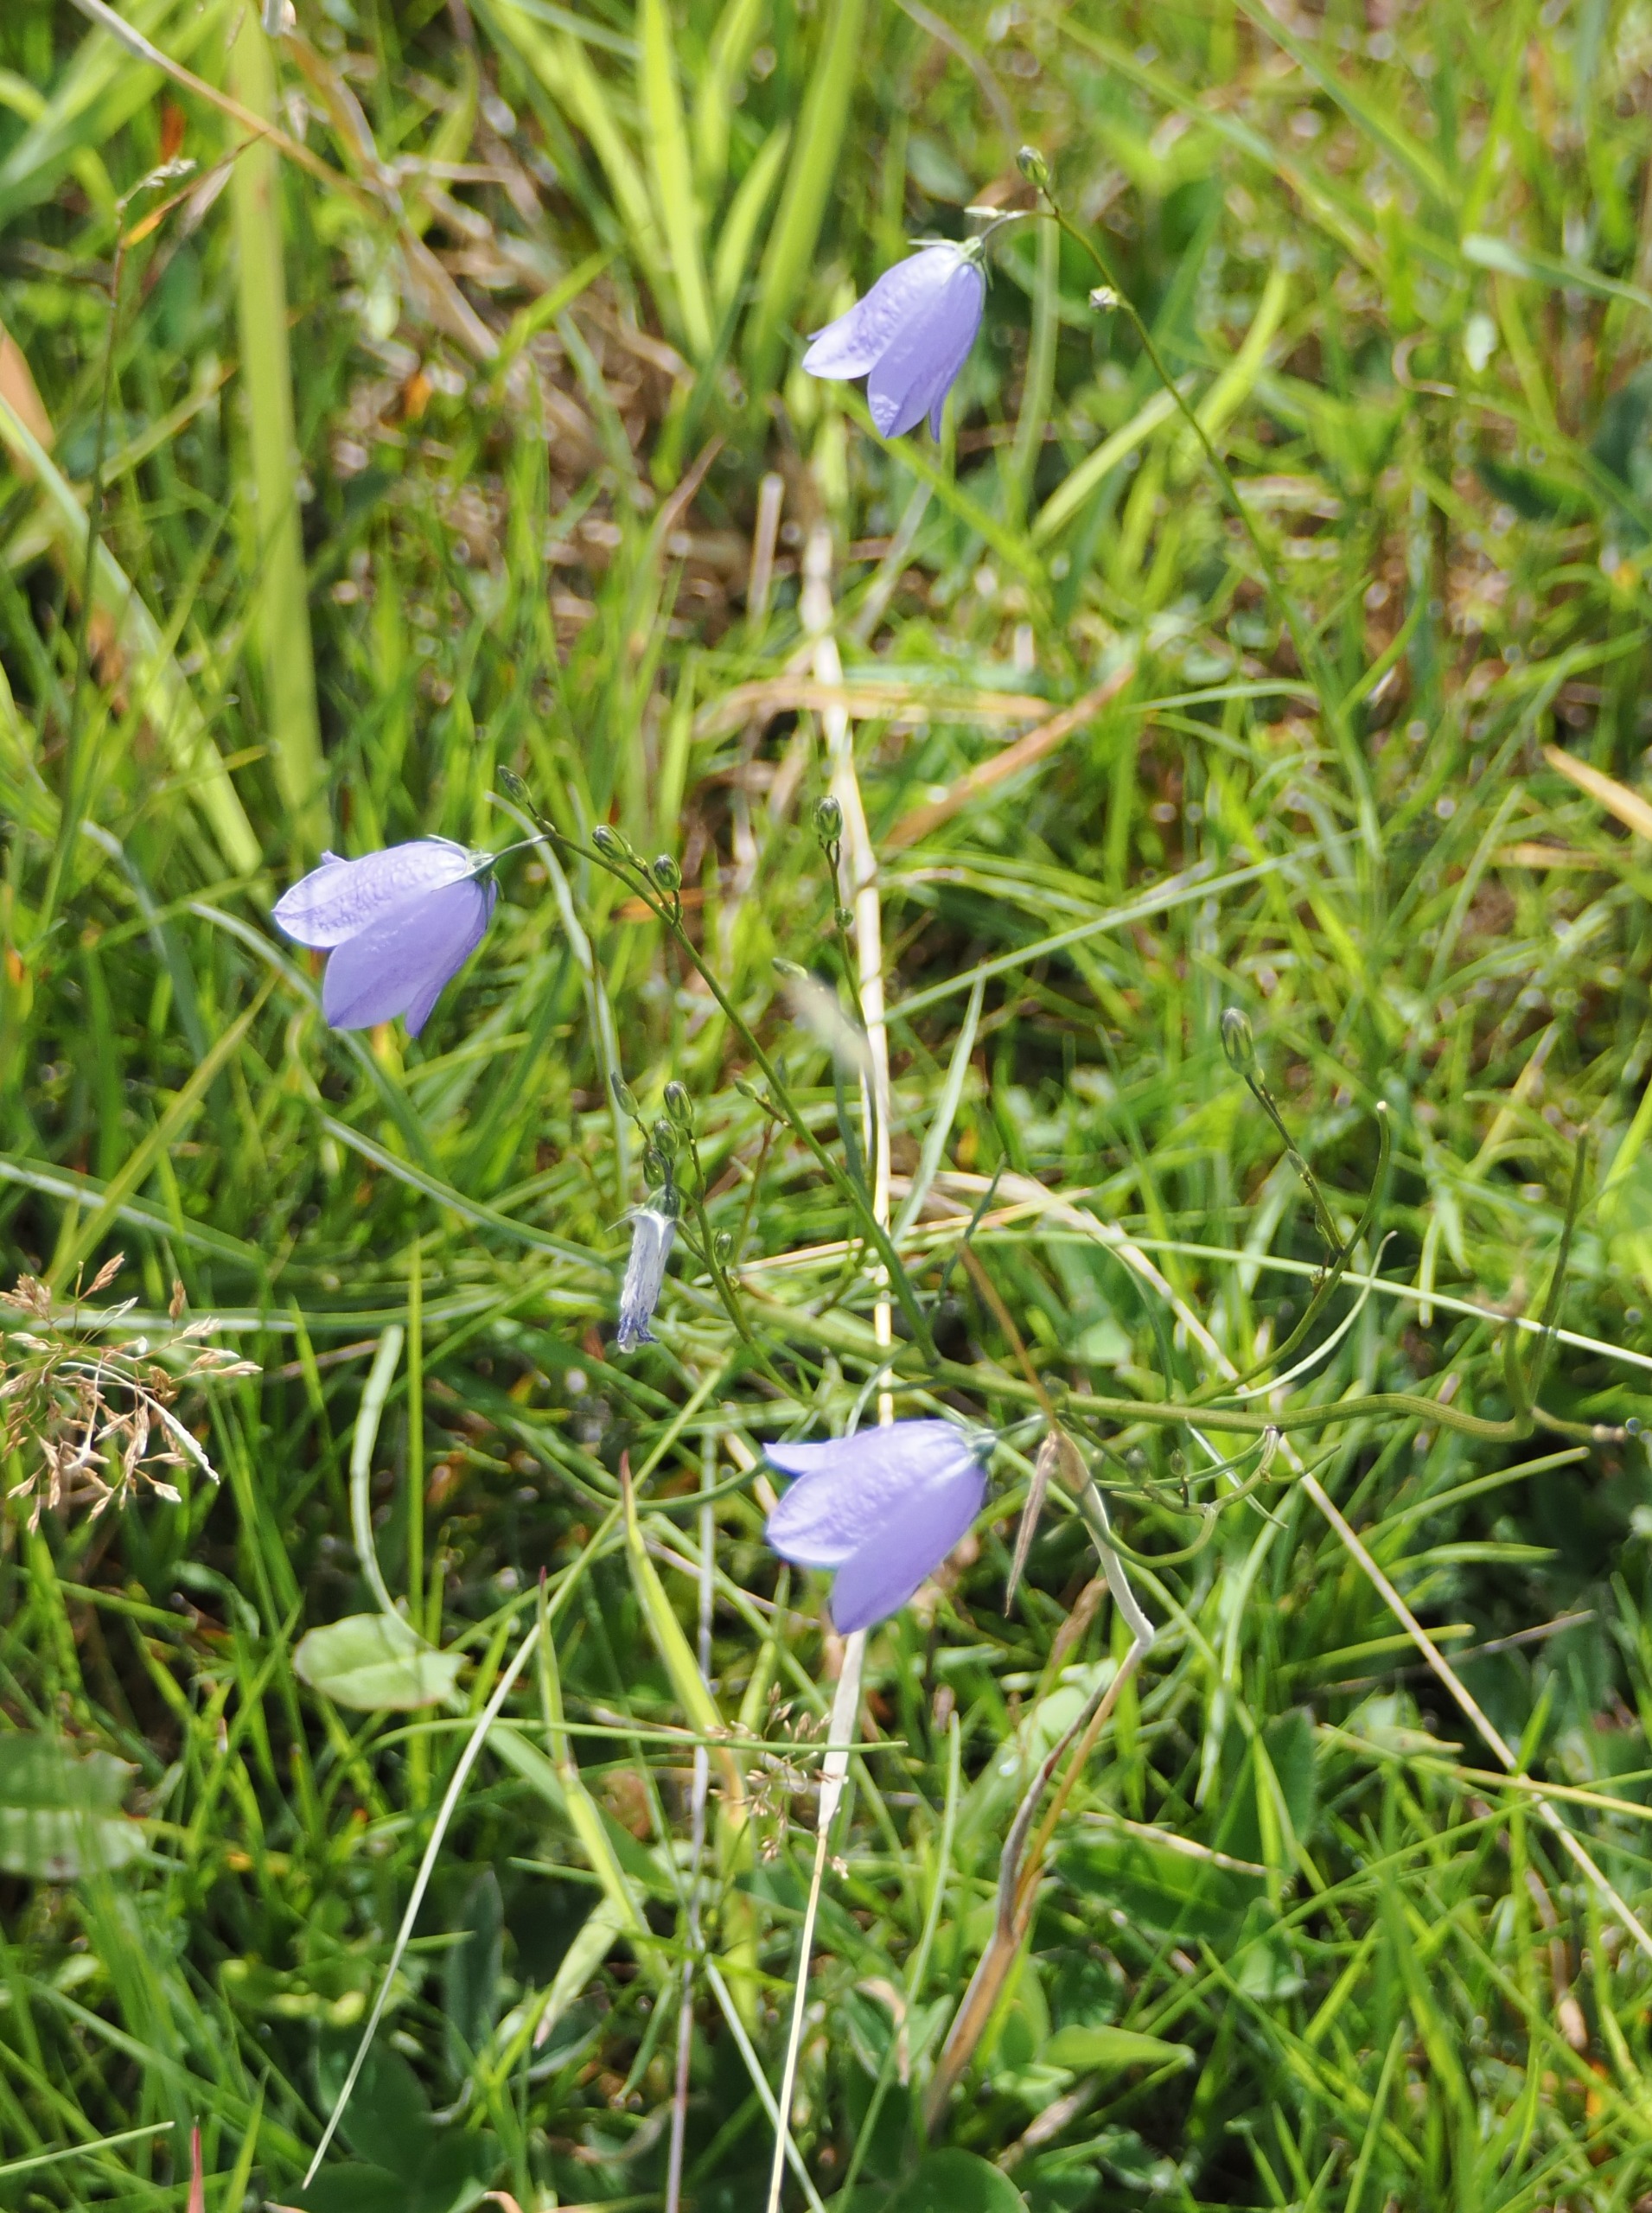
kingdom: Plantae
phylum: Tracheophyta
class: Magnoliopsida
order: Asterales
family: Campanulaceae
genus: Campanula
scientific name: Campanula rotundifolia
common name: Liden klokke
